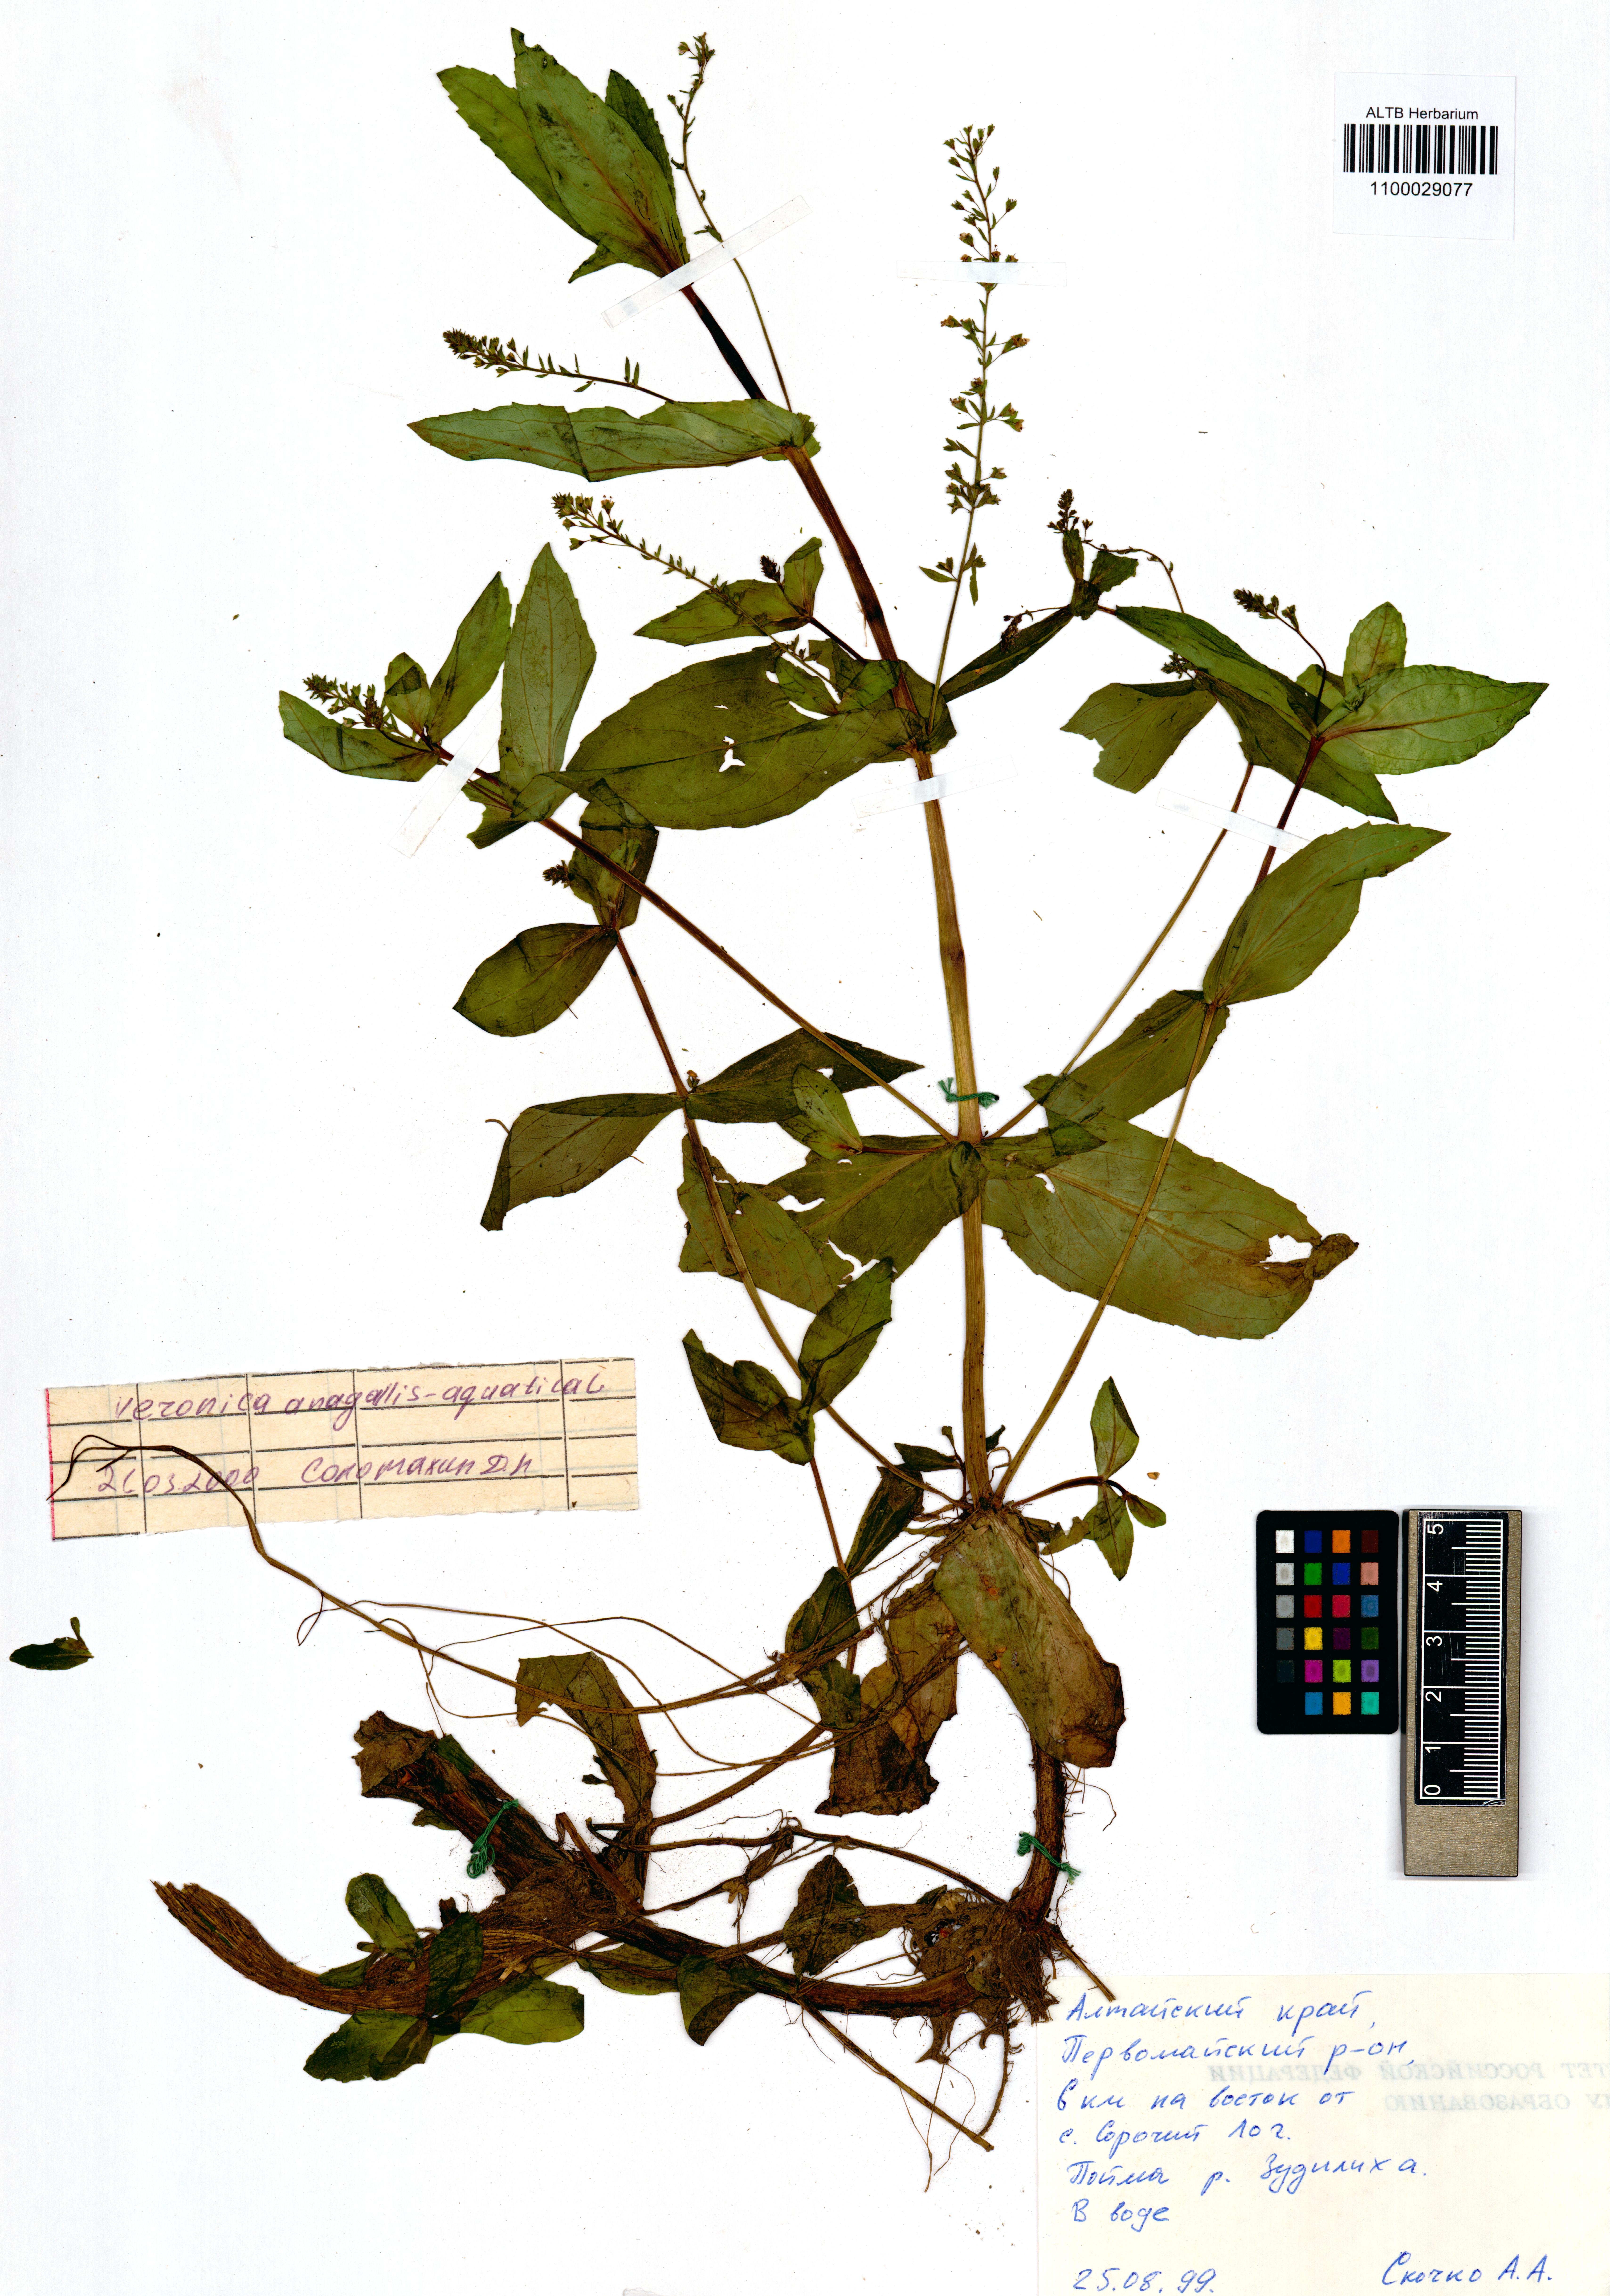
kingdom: Plantae
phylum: Tracheophyta
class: Magnoliopsida
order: Lamiales
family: Plantaginaceae
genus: Veronica
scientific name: Veronica anagallis-aquatica
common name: Water speedwell
